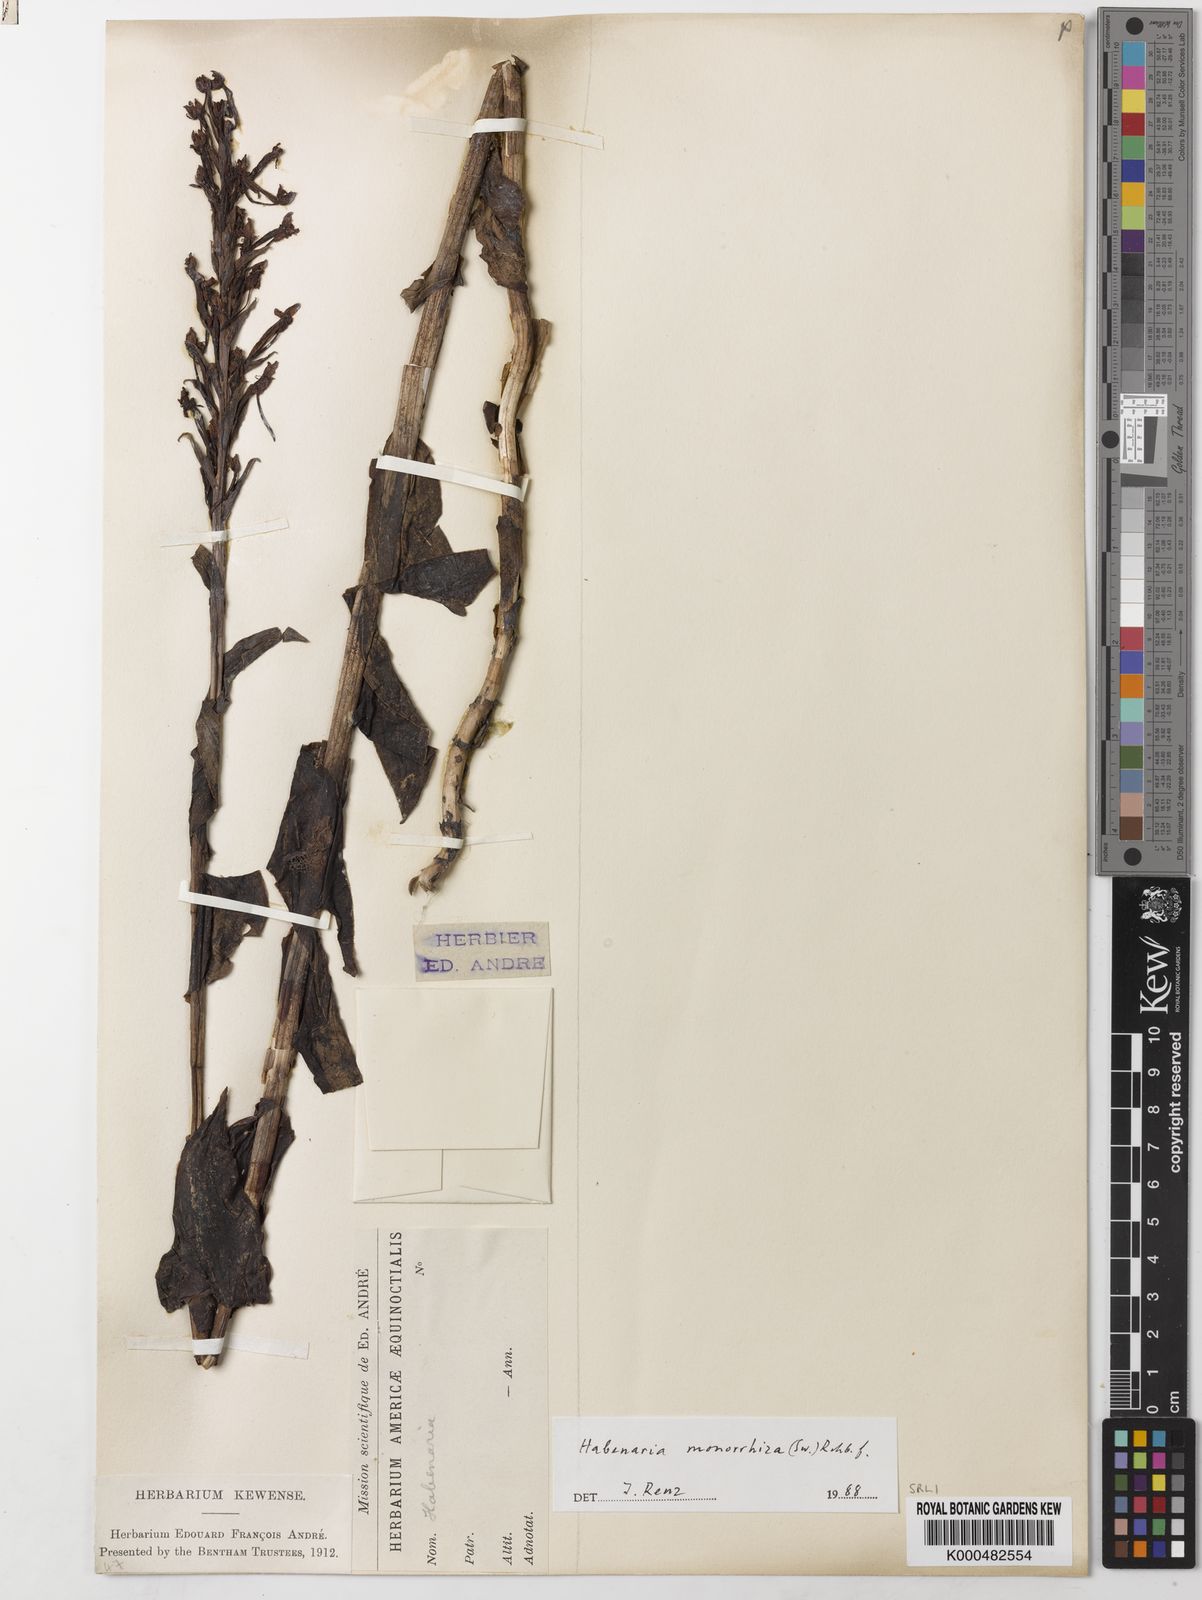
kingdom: Plantae
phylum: Tracheophyta
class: Liliopsida
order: Asparagales
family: Orchidaceae
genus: Habenaria
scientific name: Habenaria monorrhiza
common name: Tropical bog orchid
